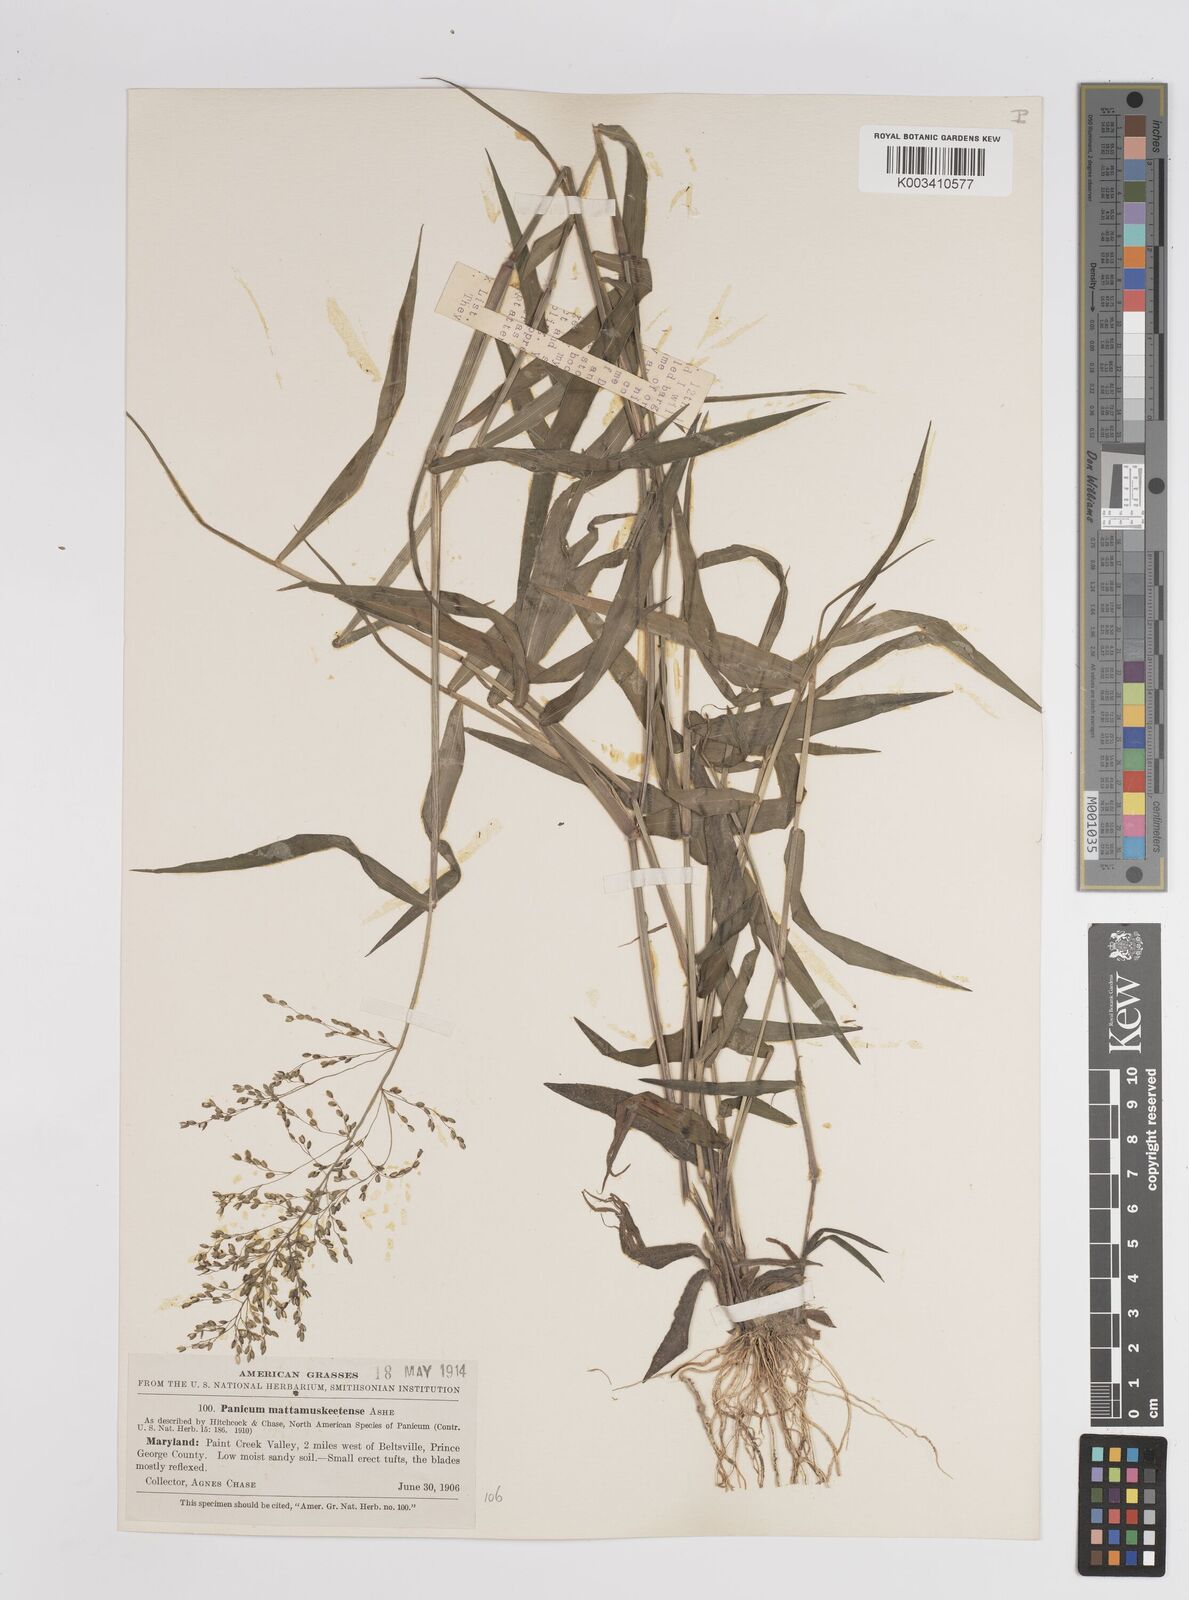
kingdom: Plantae
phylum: Tracheophyta
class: Liliopsida
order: Poales
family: Poaceae
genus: Dichanthelium
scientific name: Dichanthelium dichotomum
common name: Cypress panicgrass
